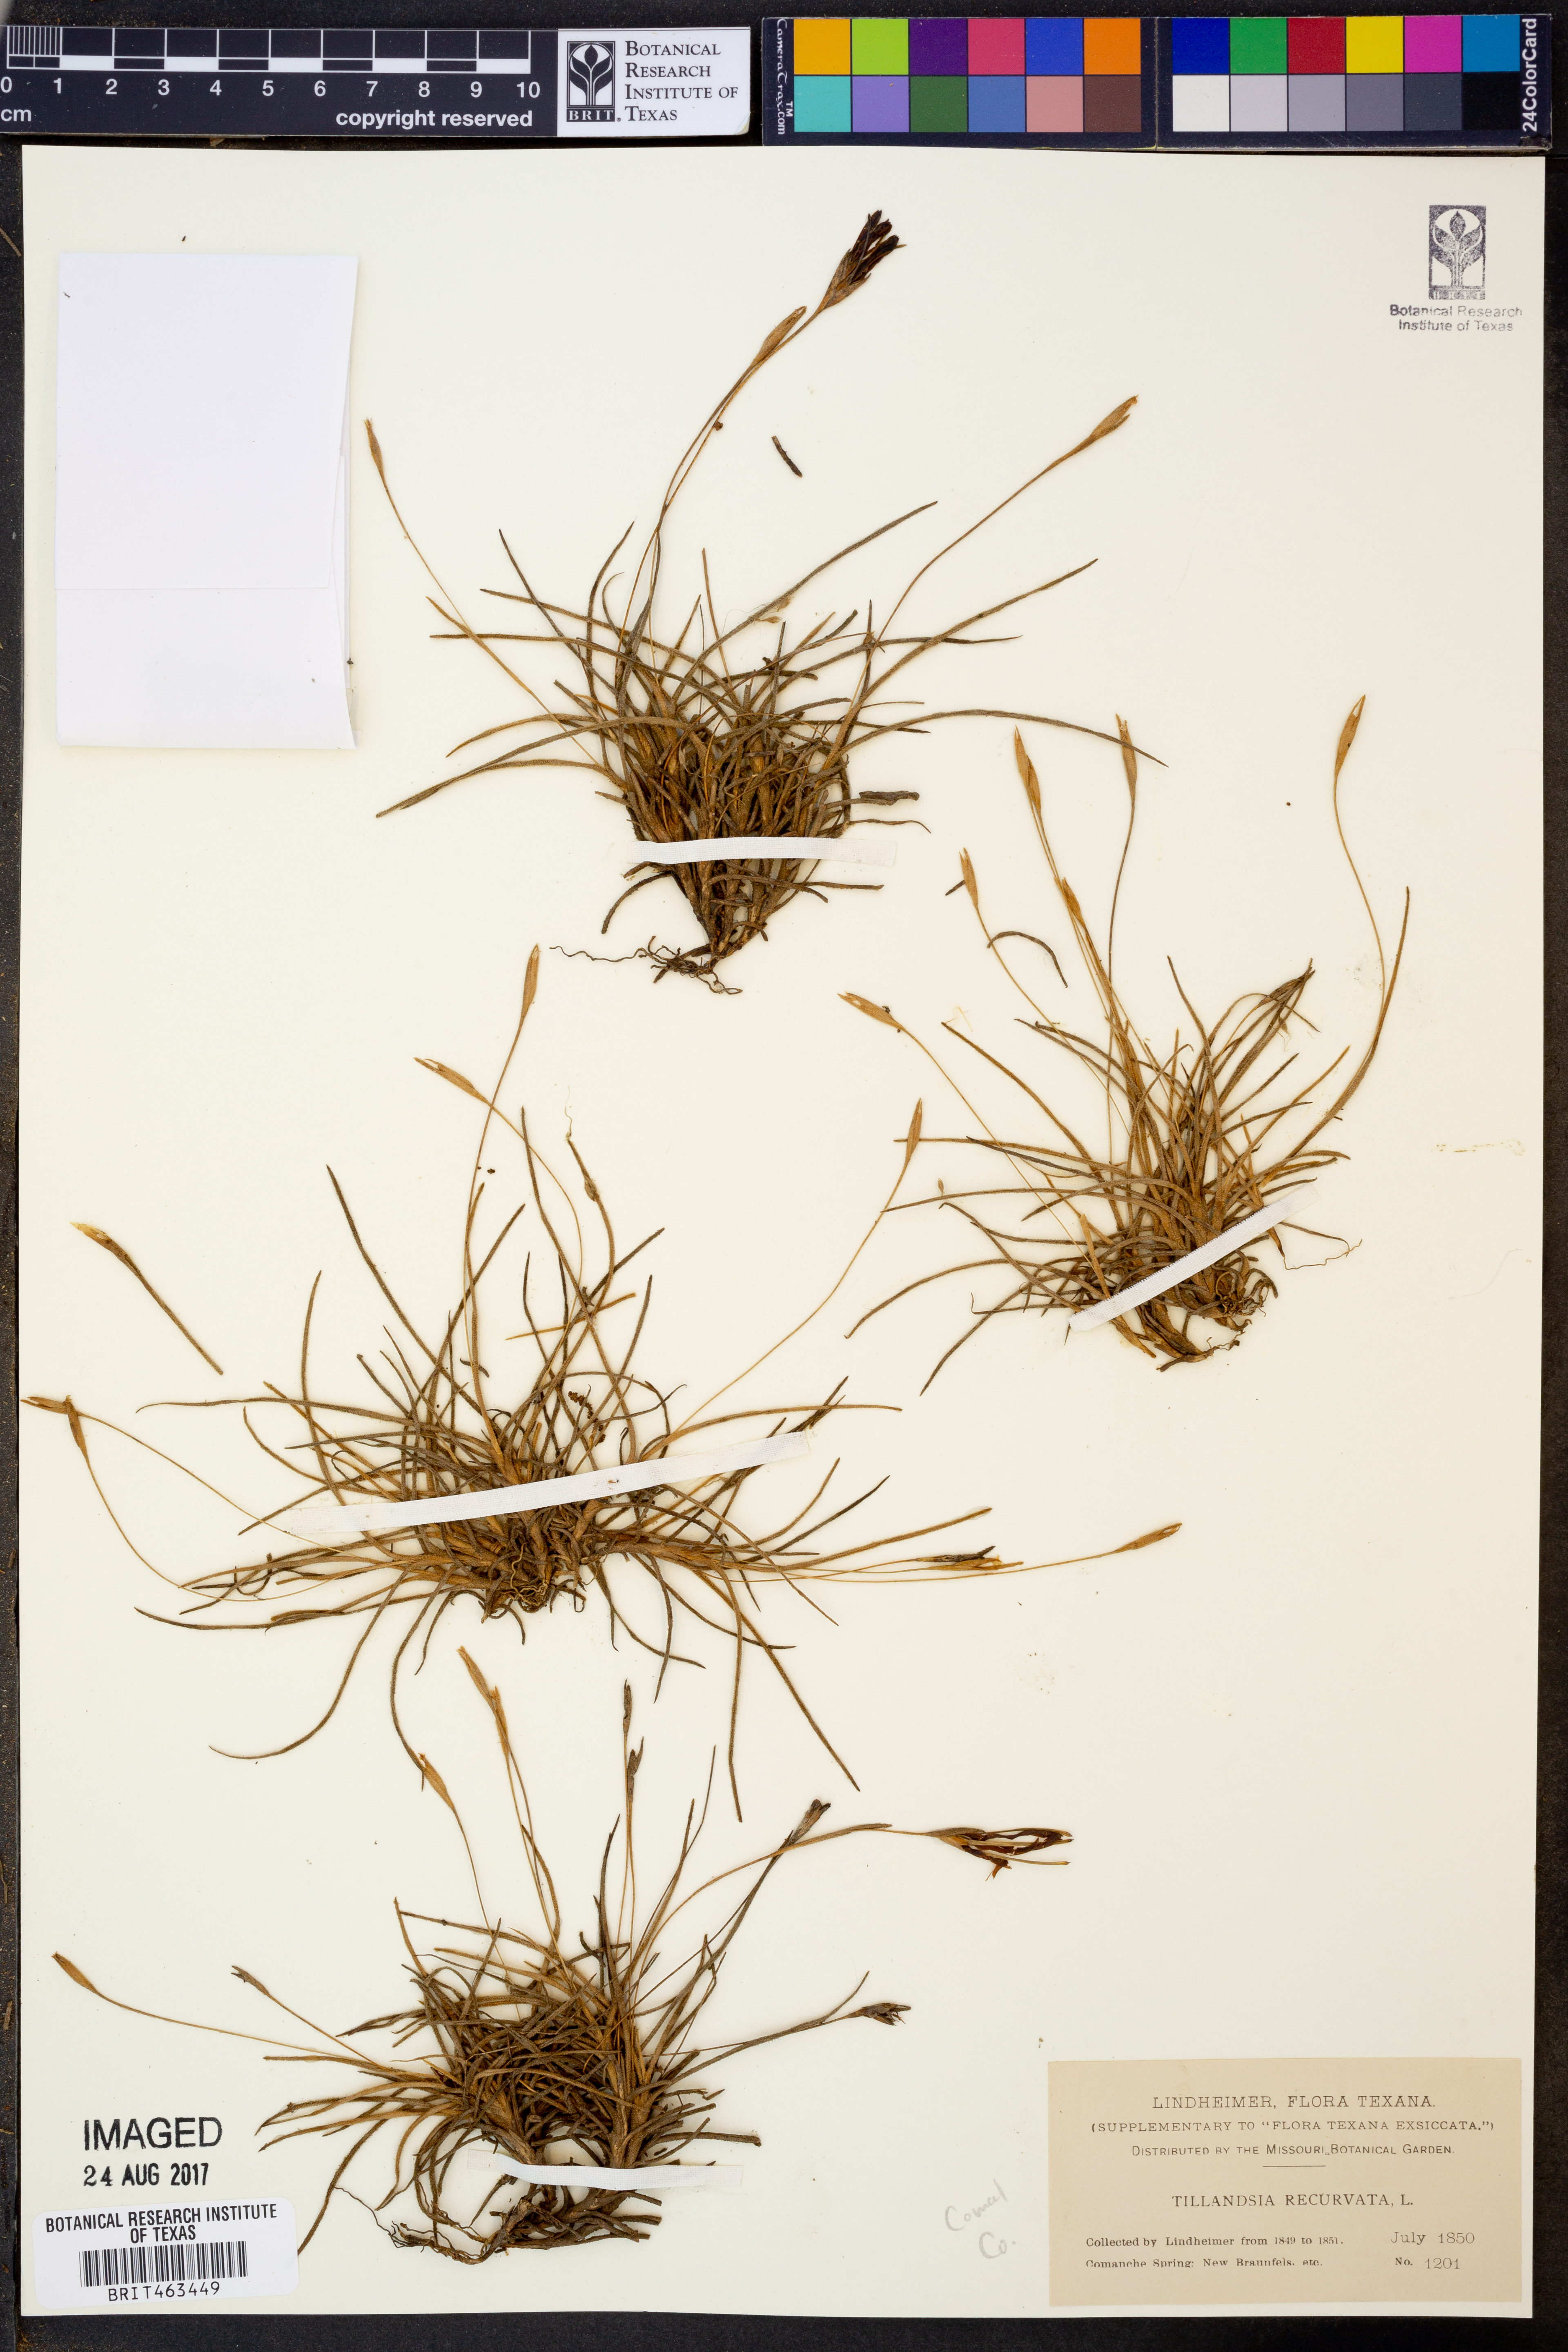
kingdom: Plantae
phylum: Tracheophyta
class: Liliopsida
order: Poales
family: Bromeliaceae
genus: Tillandsia
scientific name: Tillandsia recurvata
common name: Small ballmoss
